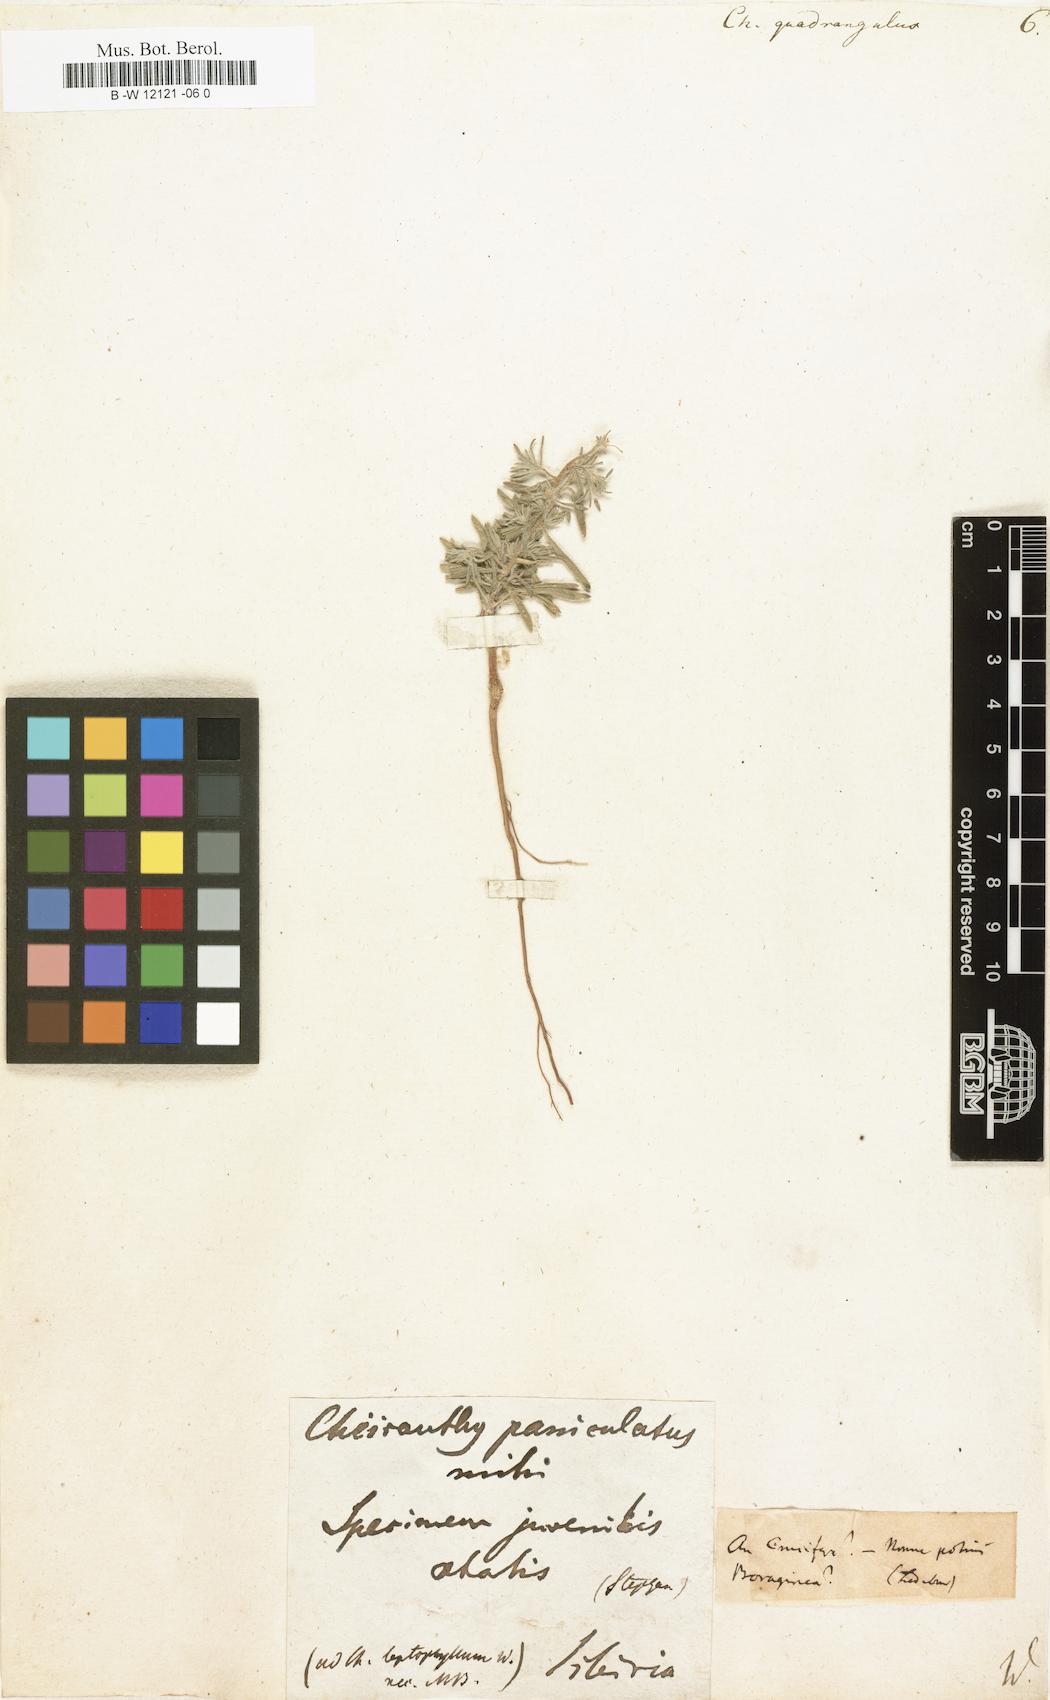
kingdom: Plantae
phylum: Tracheophyta
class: Magnoliopsida
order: Brassicales
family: Brassicaceae
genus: Erysimum
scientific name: Erysimum
